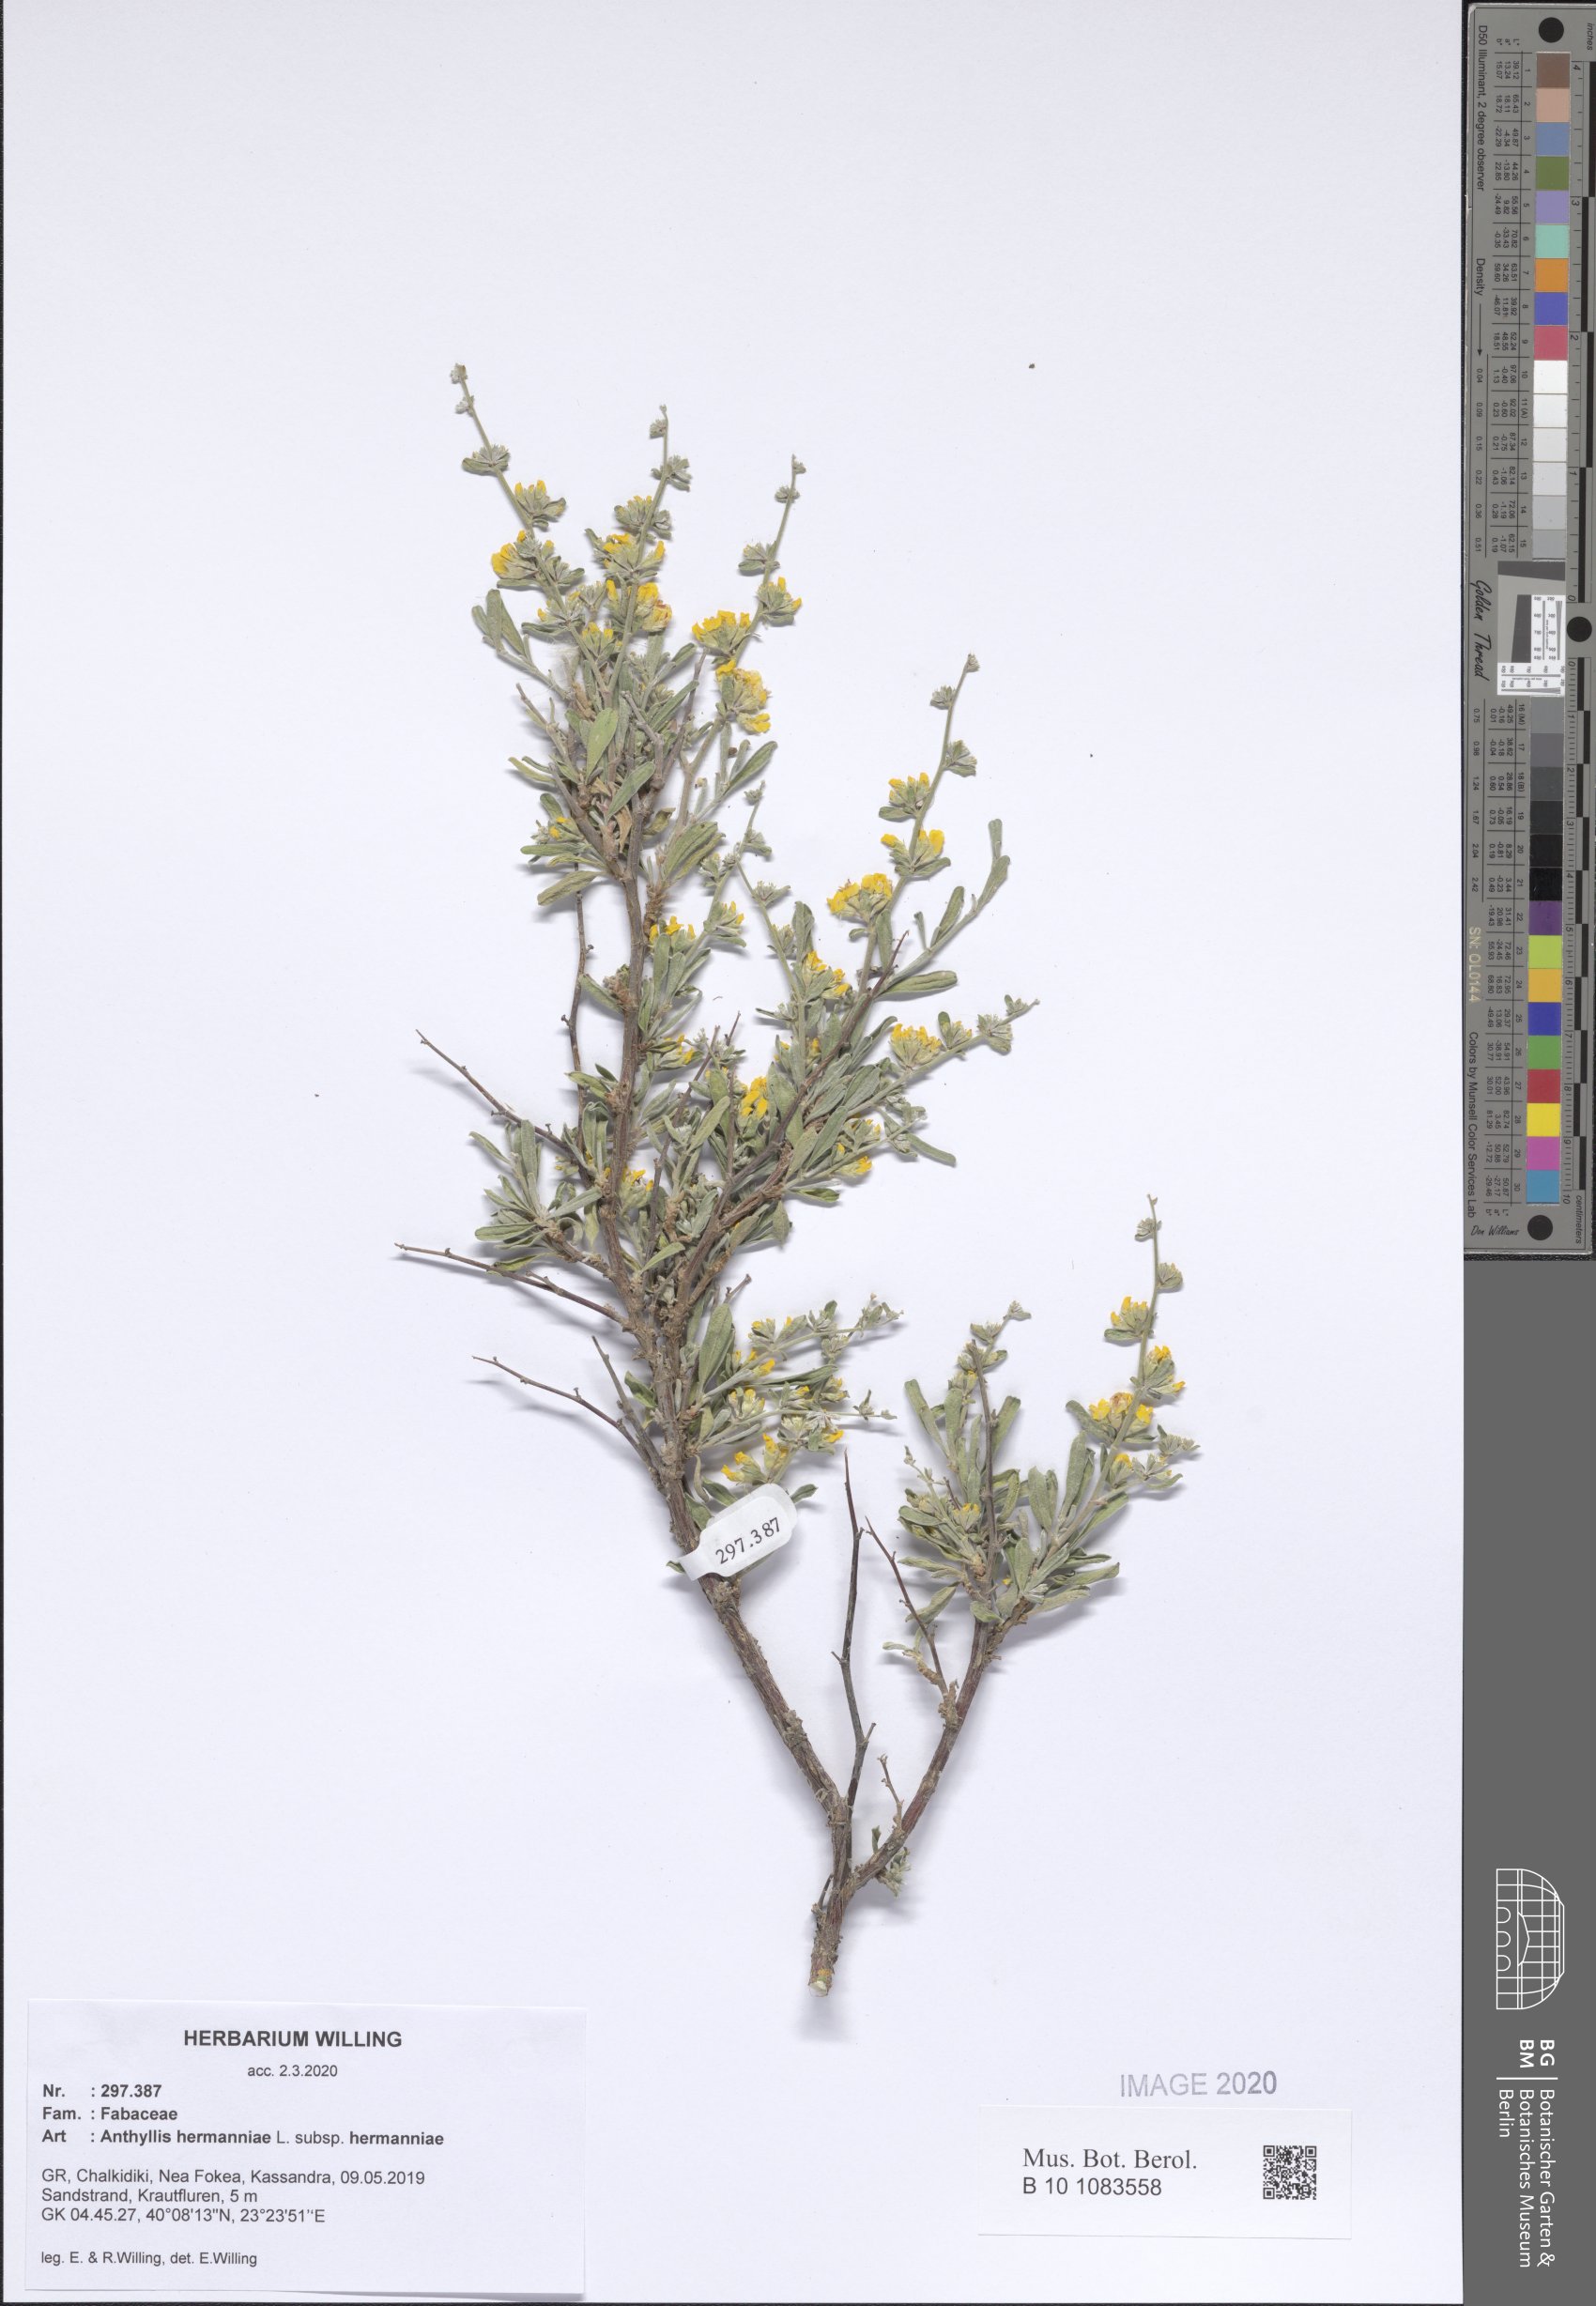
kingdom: Plantae
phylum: Tracheophyta
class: Magnoliopsida
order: Fabales
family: Fabaceae
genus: Anthyllis
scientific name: Anthyllis hermanniae
